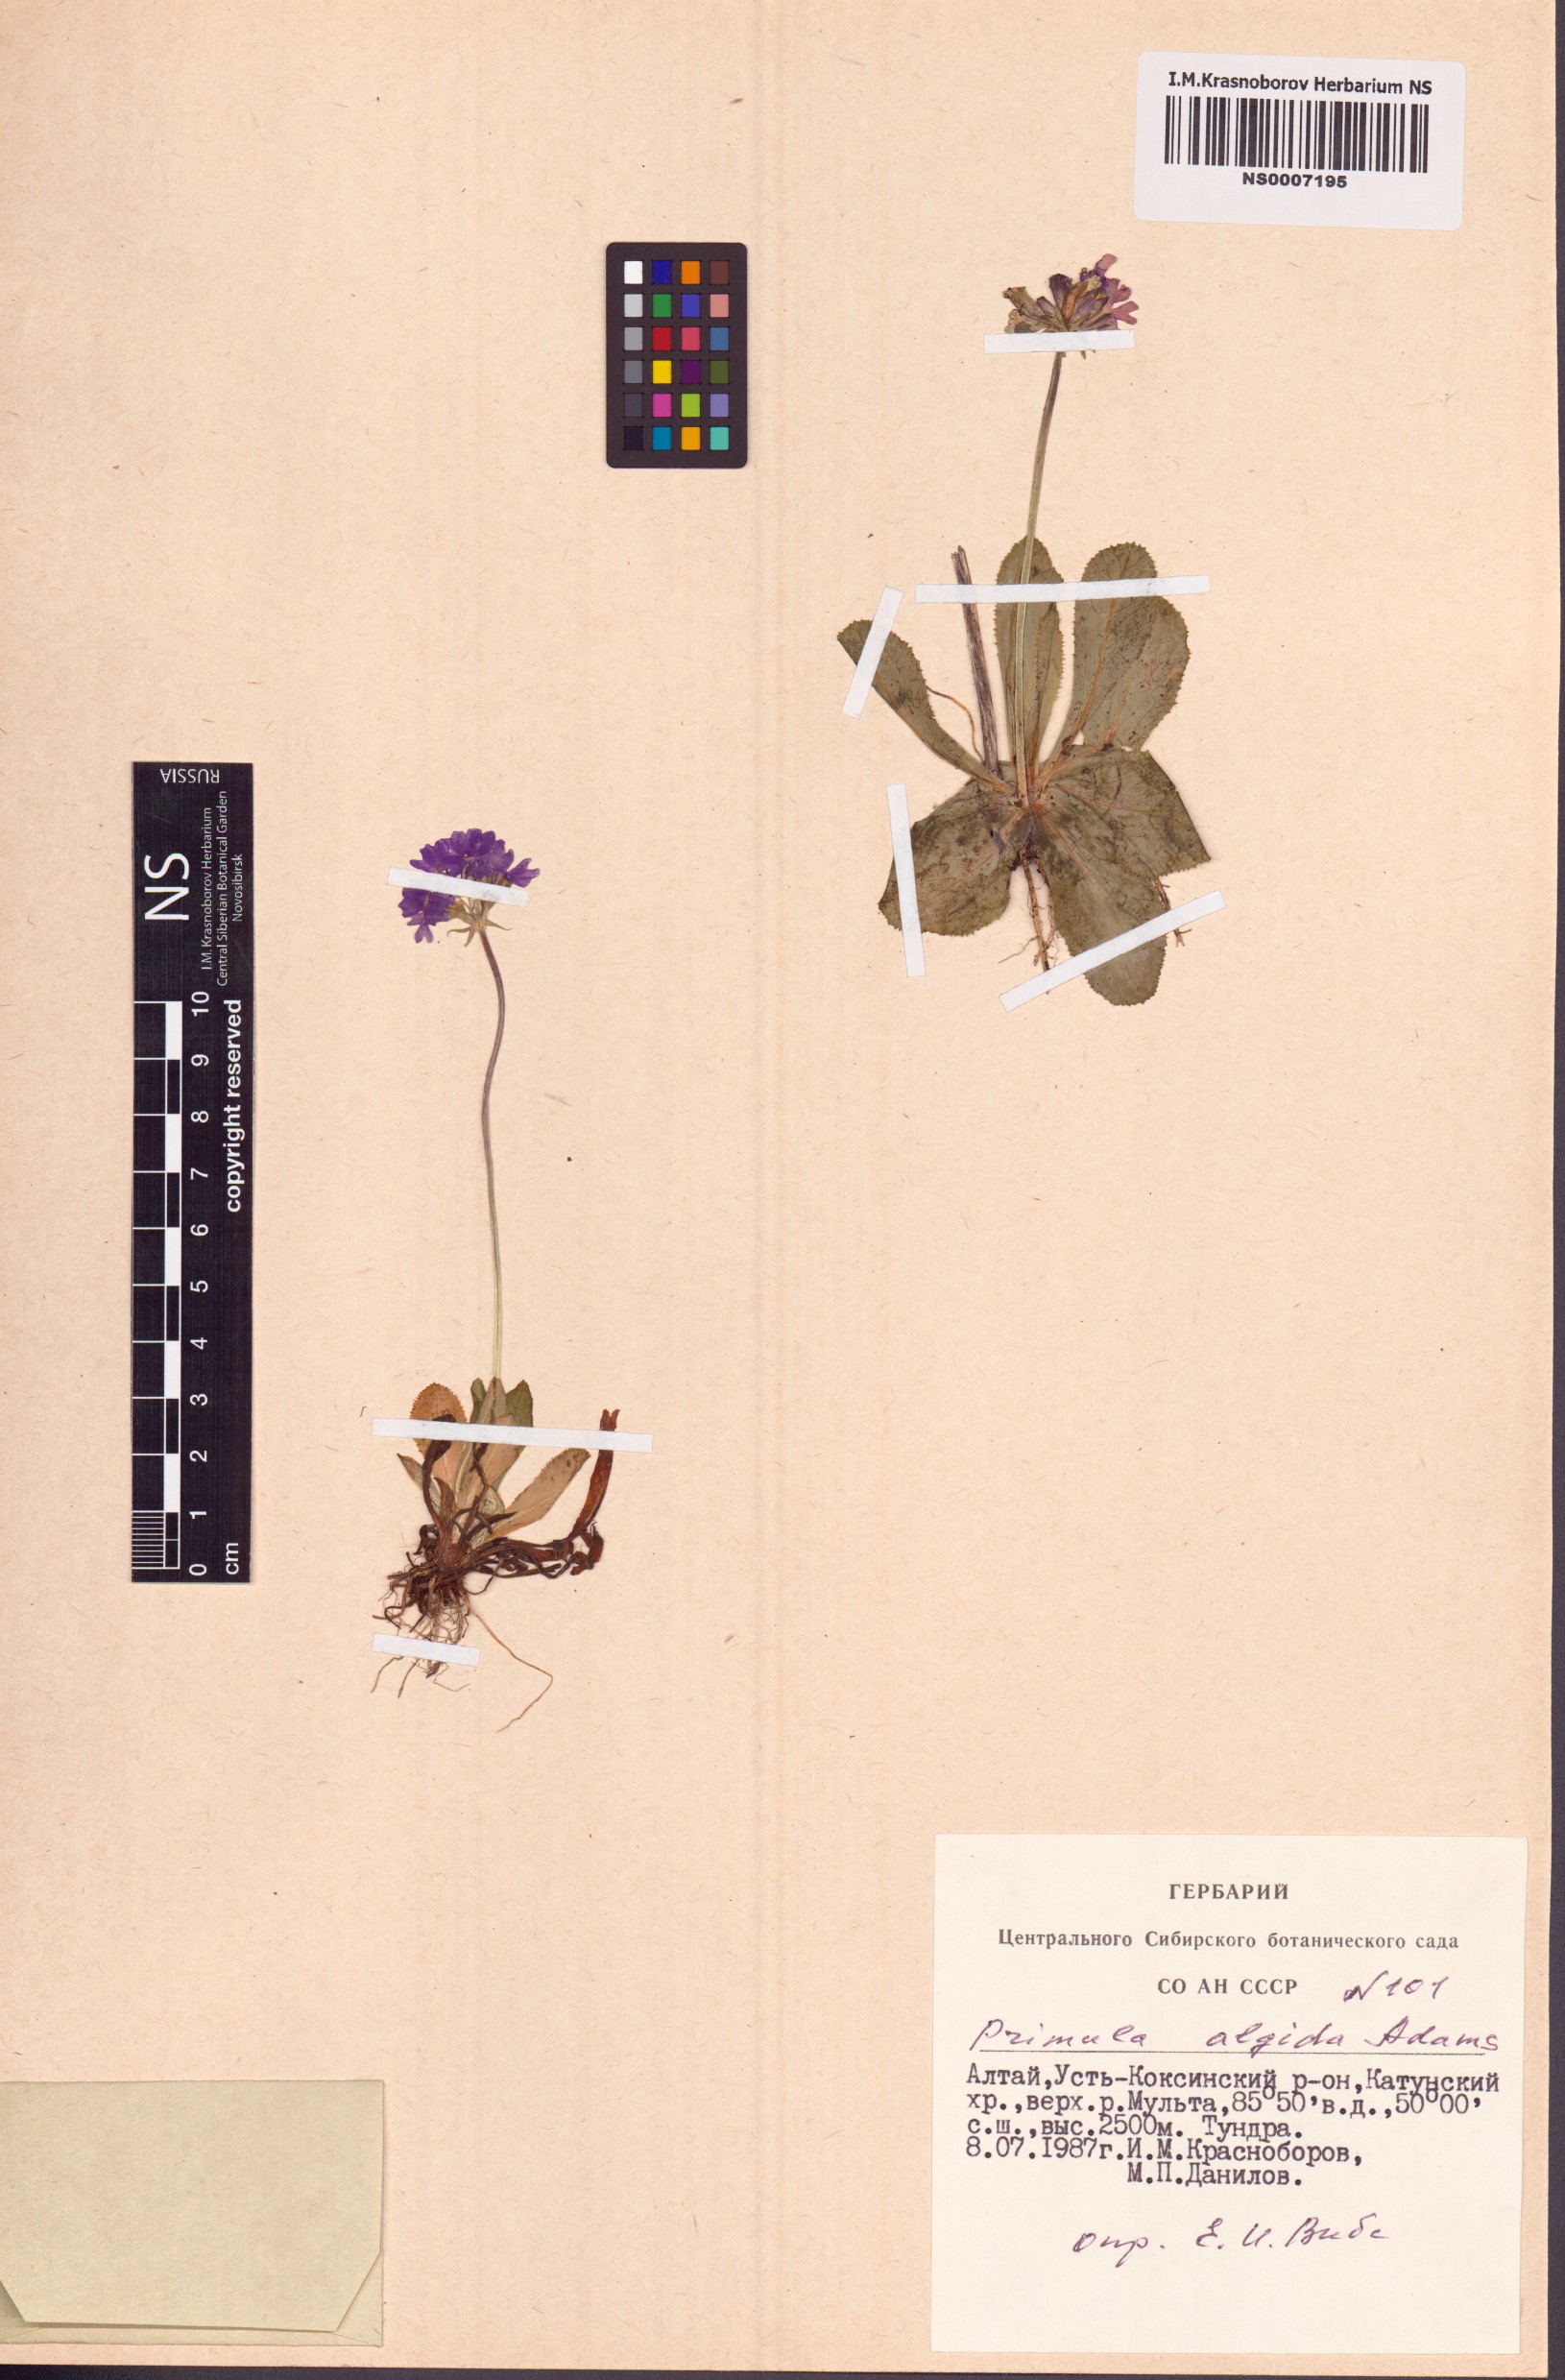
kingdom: Plantae
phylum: Tracheophyta
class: Magnoliopsida
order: Ericales
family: Primulaceae
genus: Primula
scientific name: Primula algida
